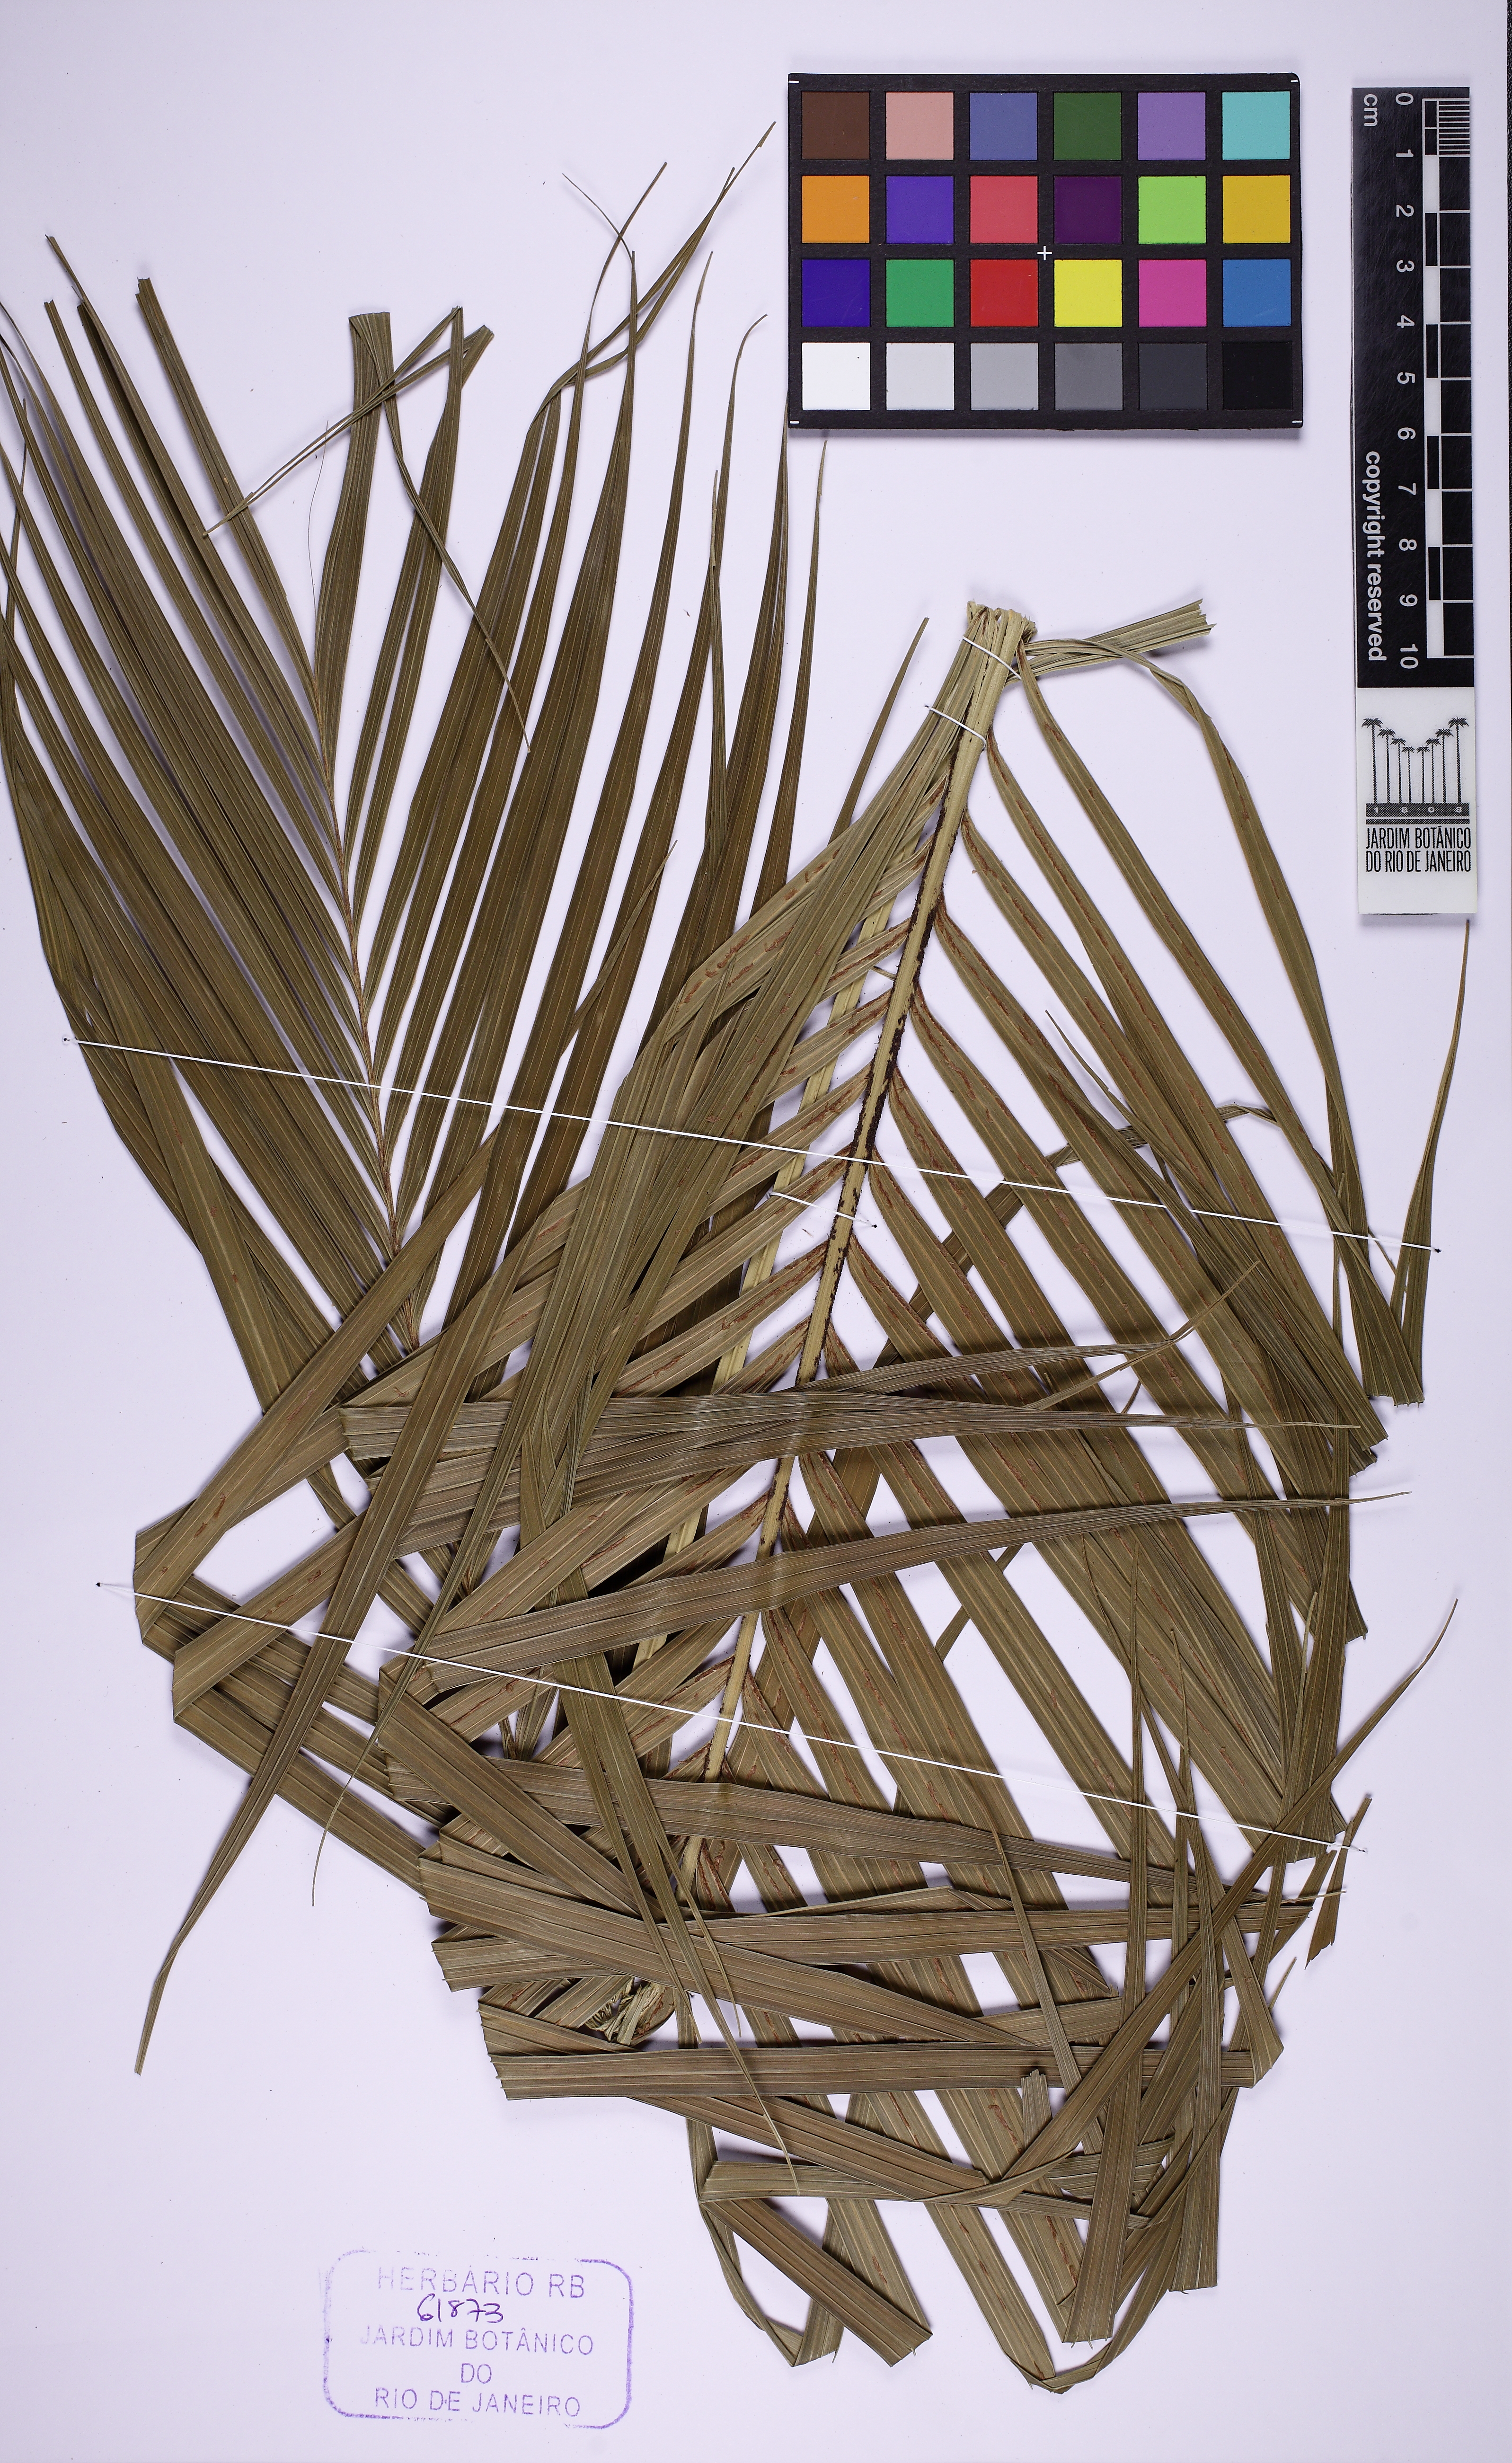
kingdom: Plantae
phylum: Tracheophyta
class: Liliopsida
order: Arecales
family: Arecaceae
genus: Geonoma
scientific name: Geonoma schottiana
